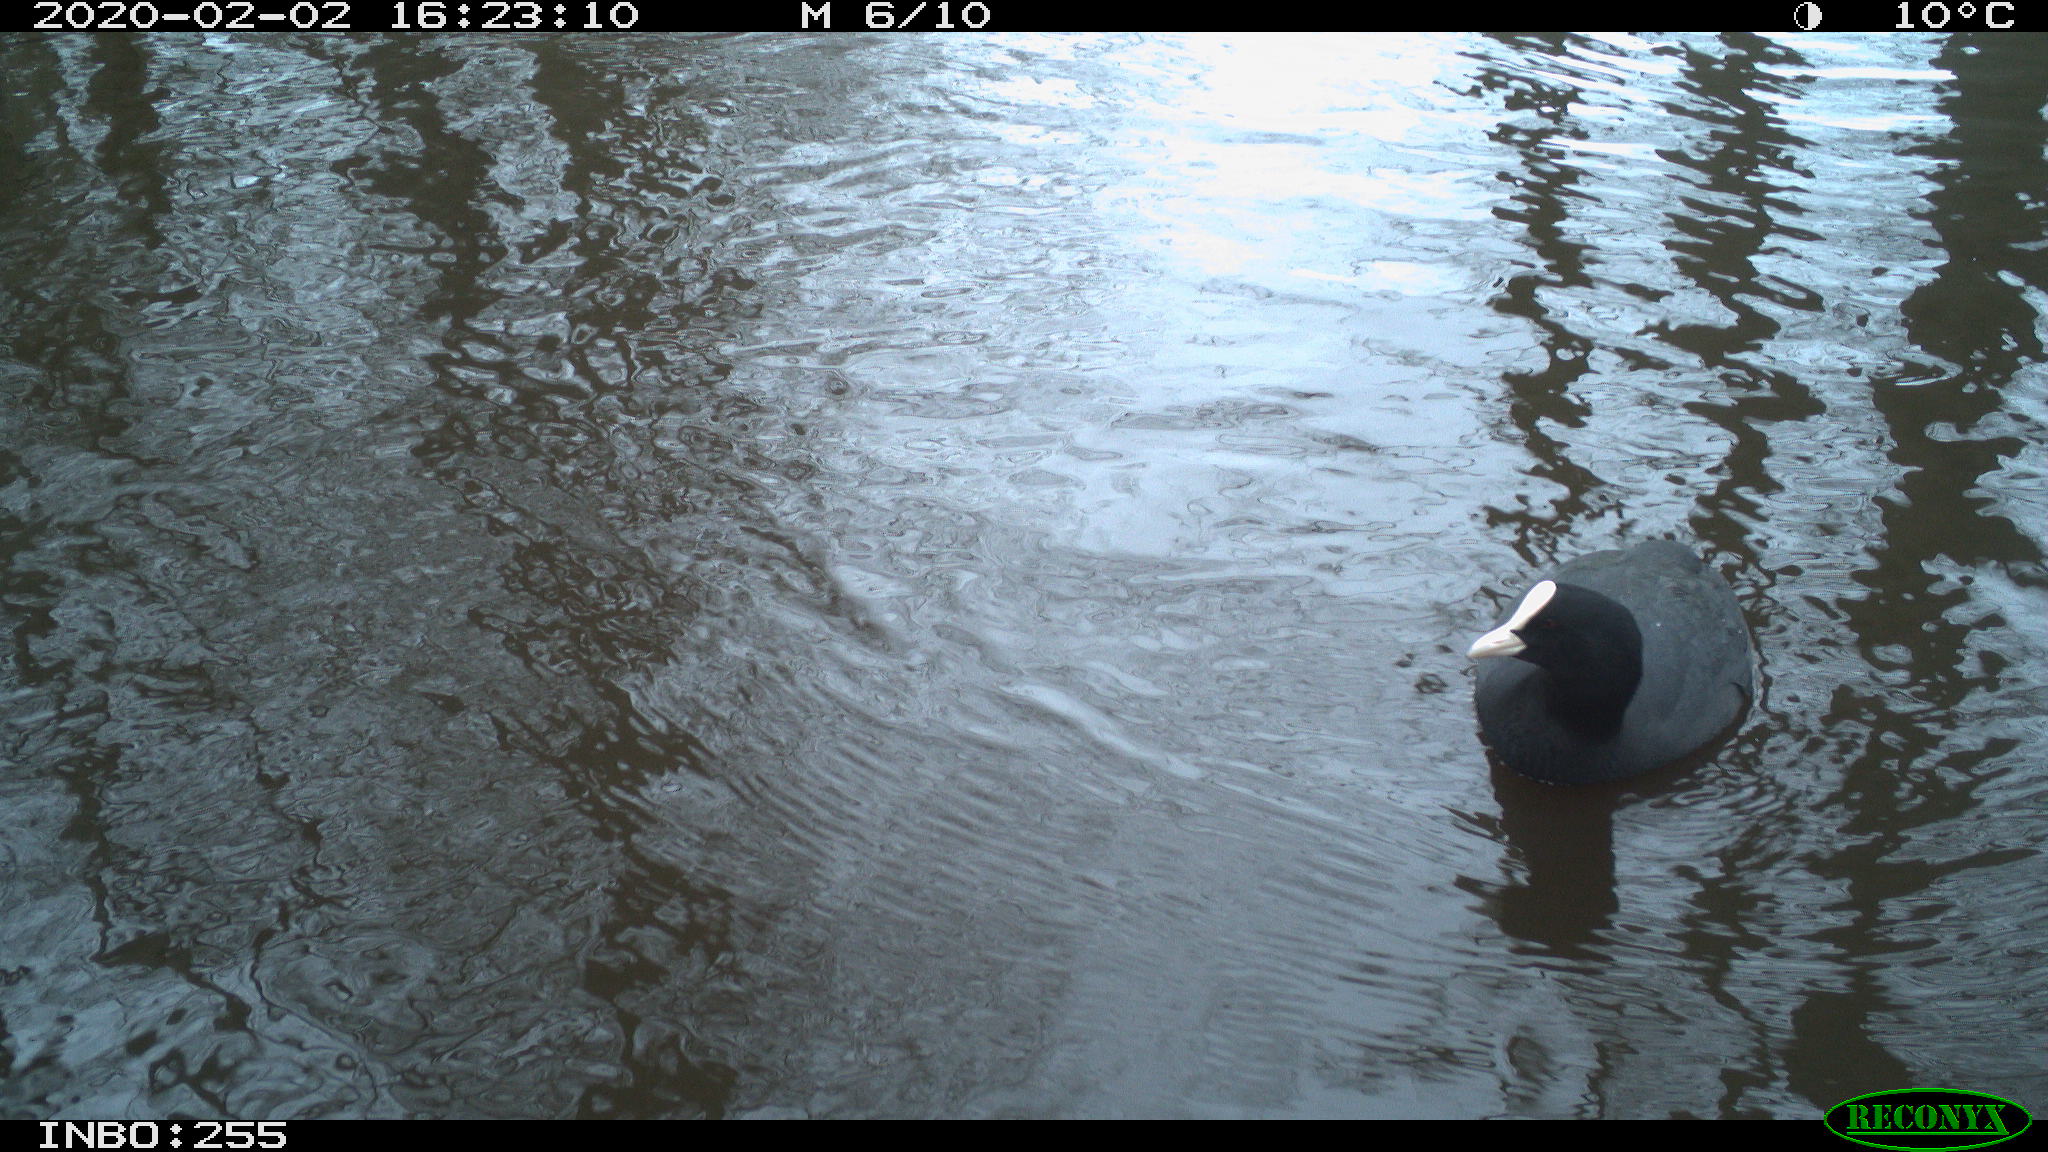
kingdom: Animalia
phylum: Chordata
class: Aves
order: Gruiformes
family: Rallidae
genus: Fulica
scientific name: Fulica atra
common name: Eurasian coot
